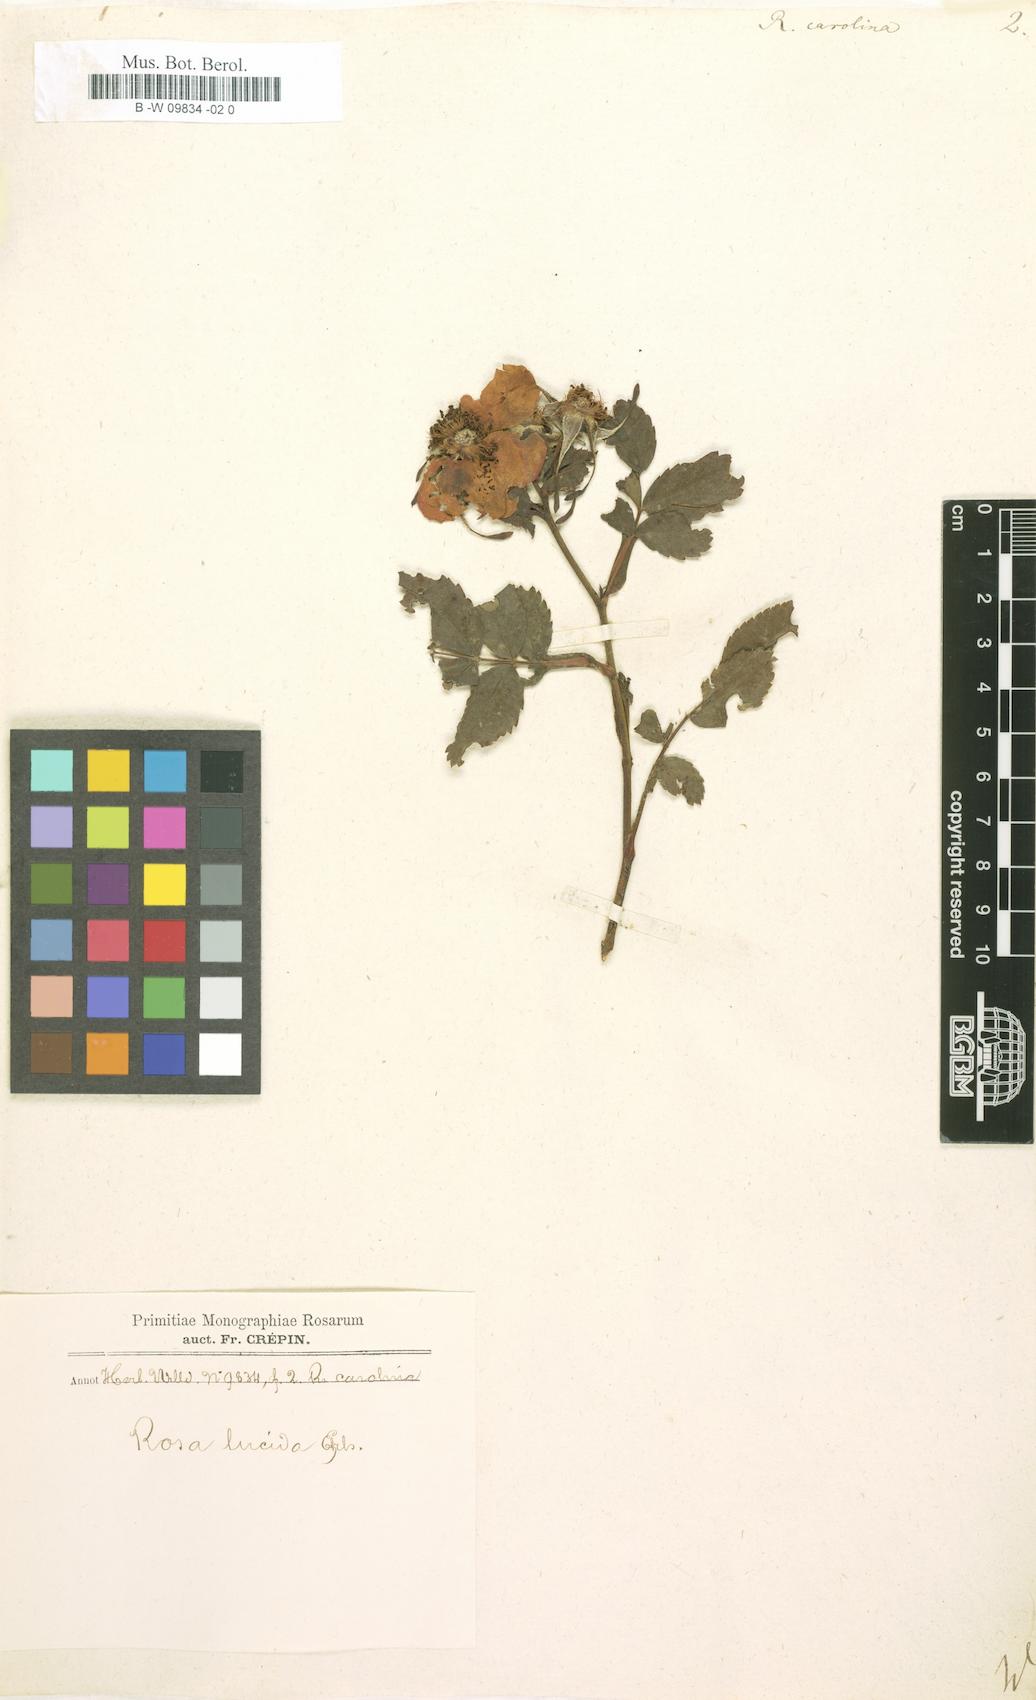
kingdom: Plantae
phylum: Tracheophyta
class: Magnoliopsida
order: Rosales
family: Rosaceae
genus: Rosa
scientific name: Rosa carolina
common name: Pasture rose
